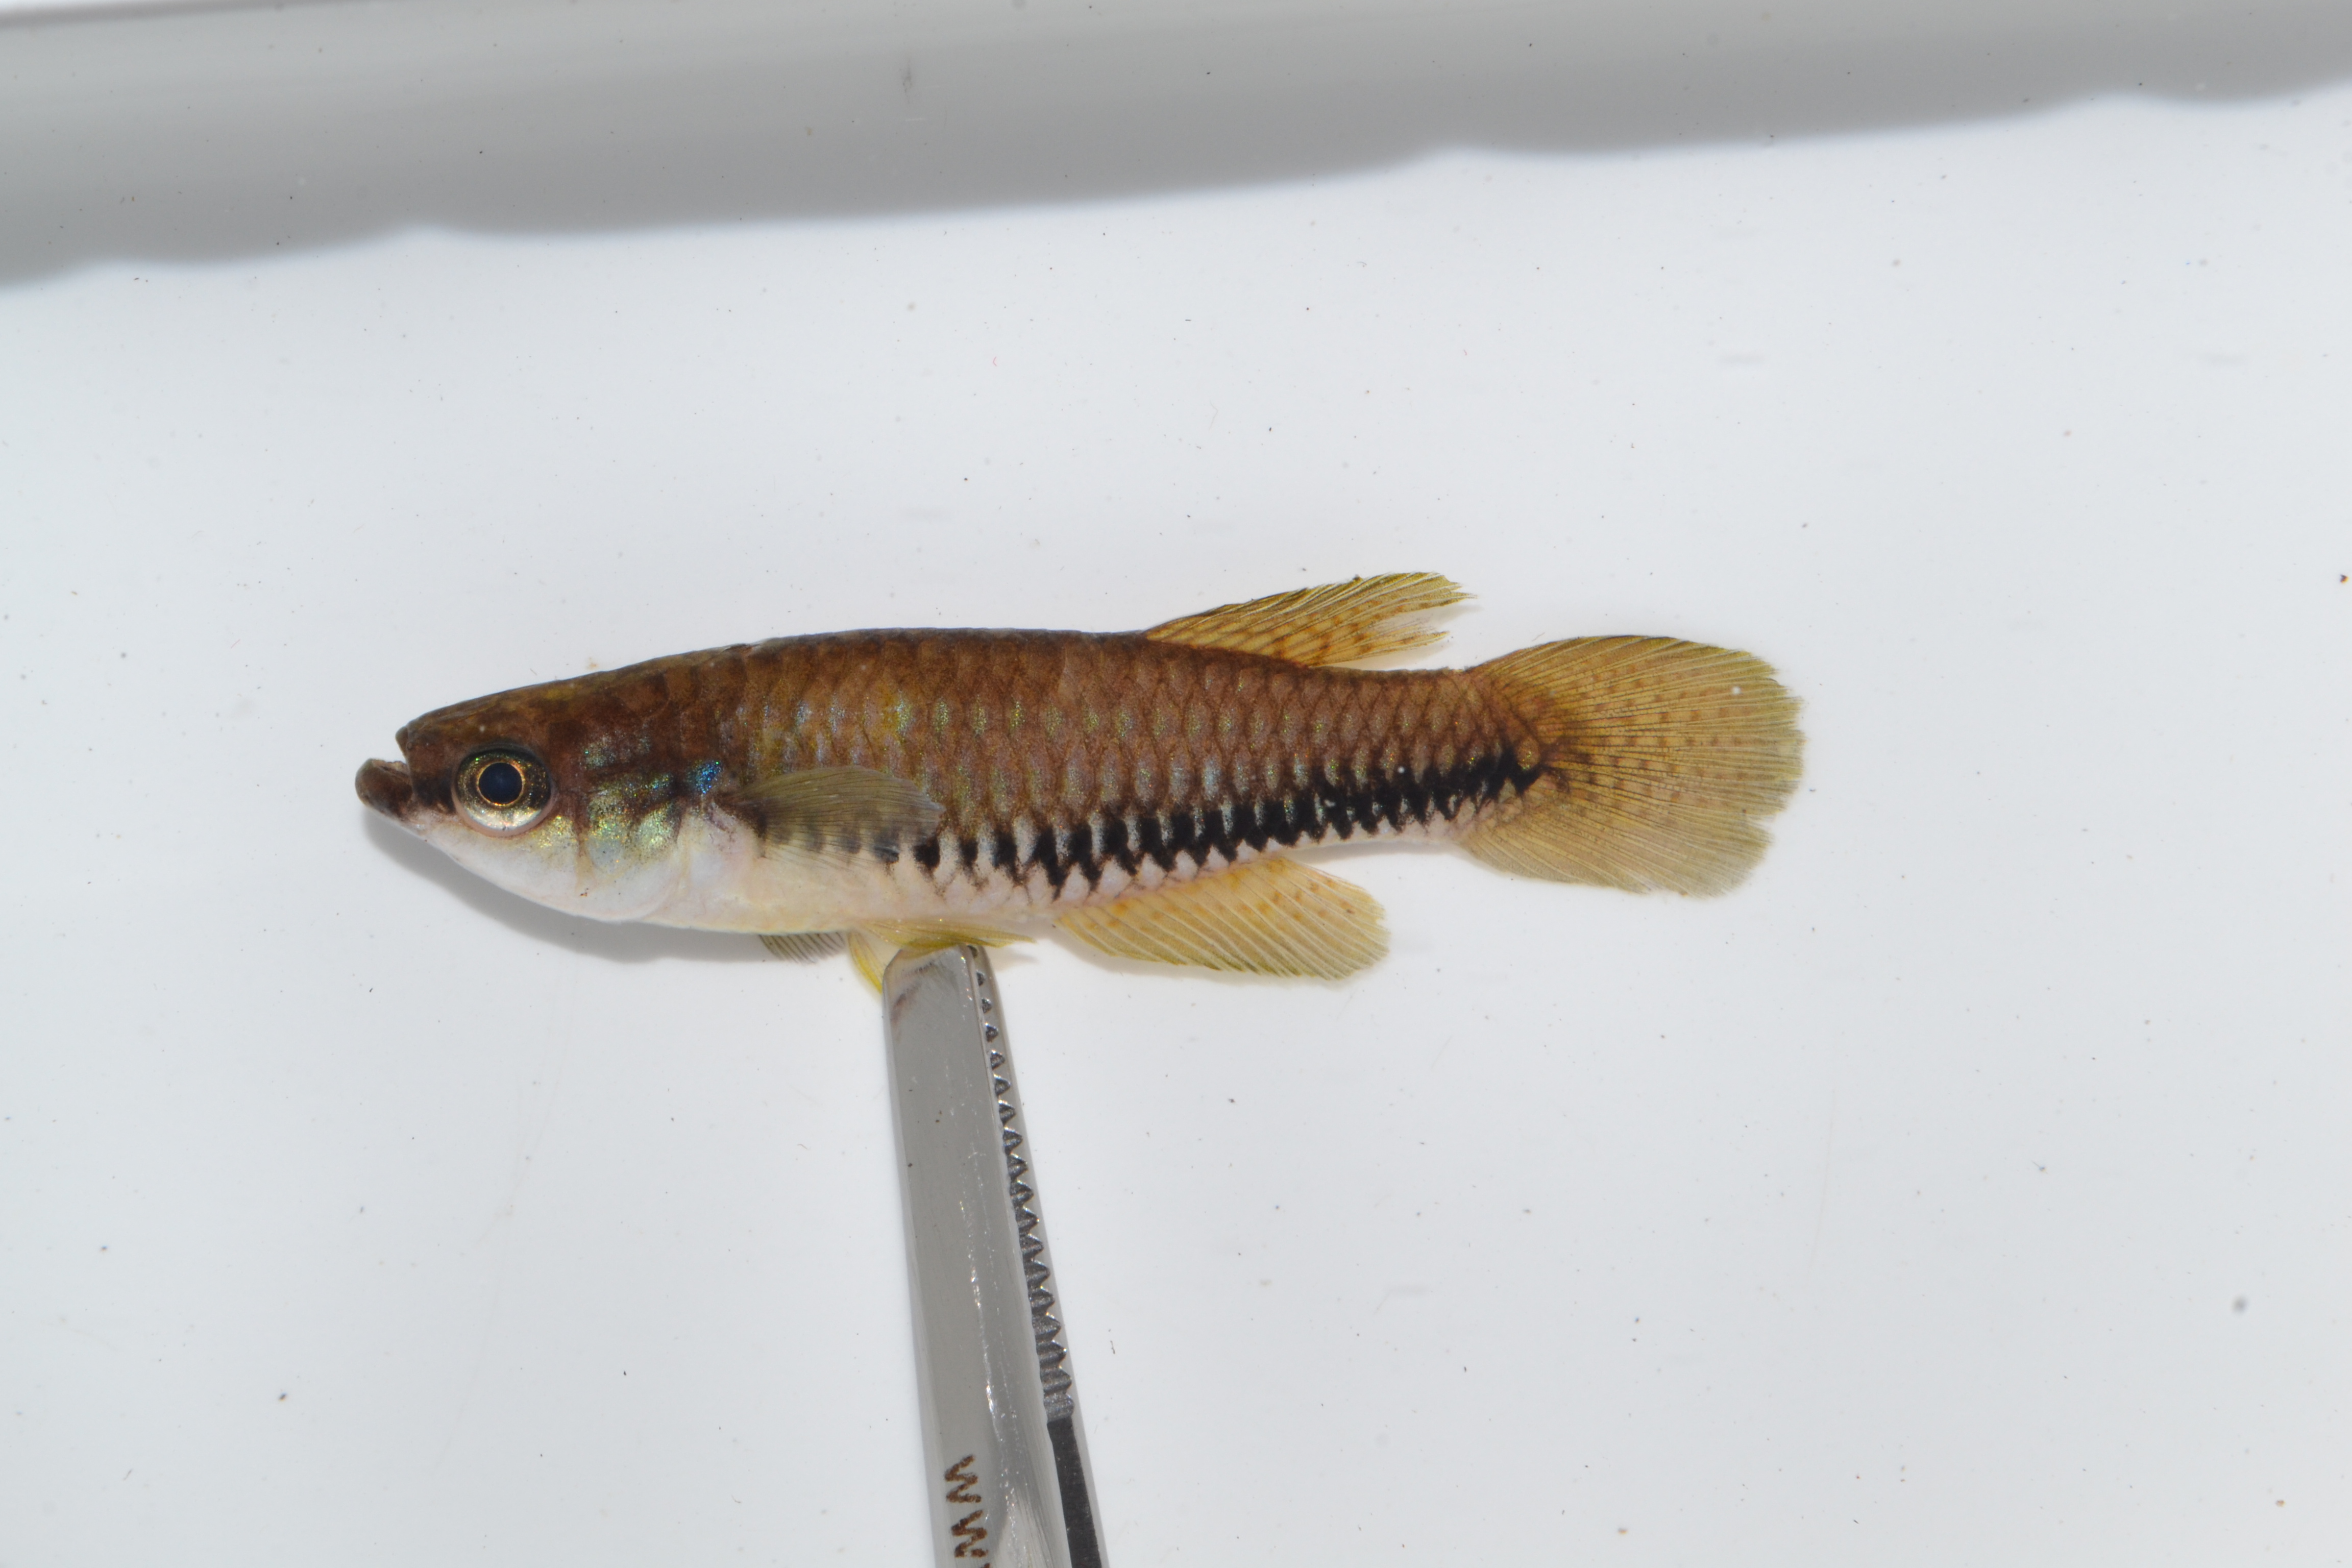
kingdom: Animalia
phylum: Chordata
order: Perciformes
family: Cichlidae
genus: Sargochromis
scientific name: Sargochromis greenwoodi
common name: Greenwood's happy
